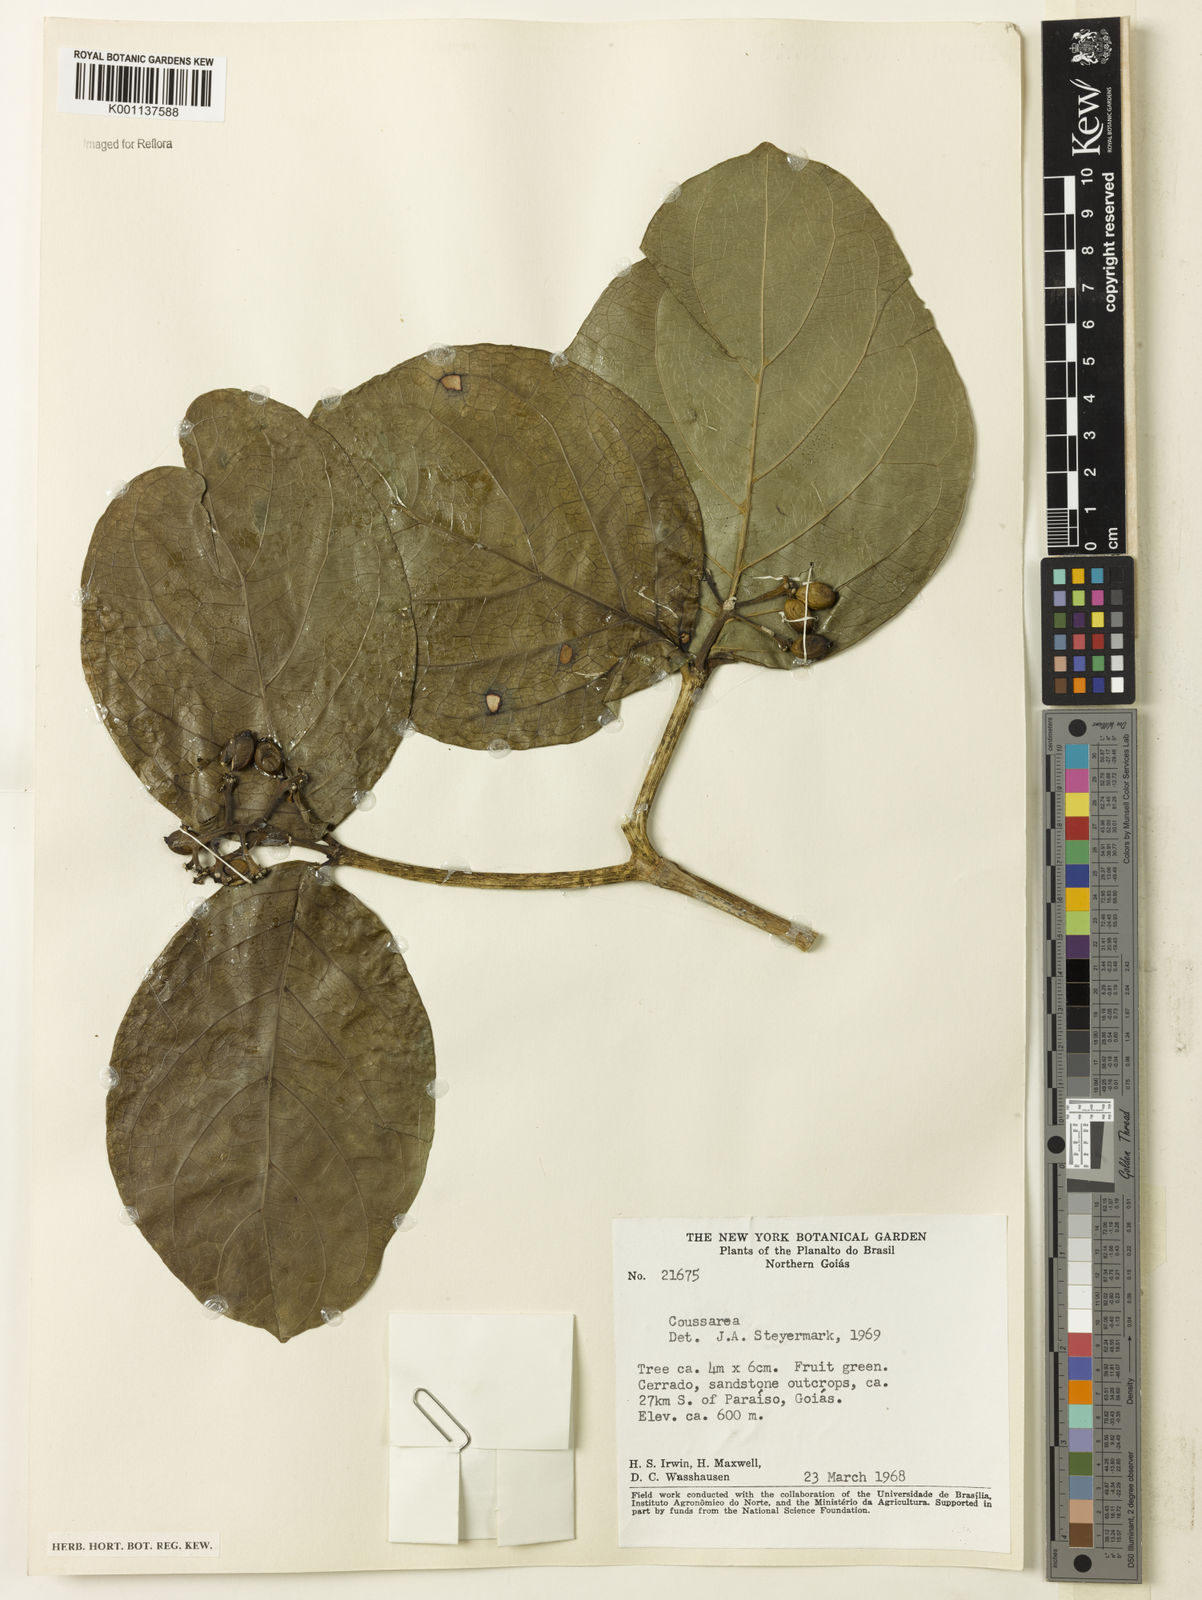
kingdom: Plantae
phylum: Tracheophyta
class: Magnoliopsida
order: Gentianales
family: Rubiaceae
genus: Coussarea
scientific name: Coussarea
